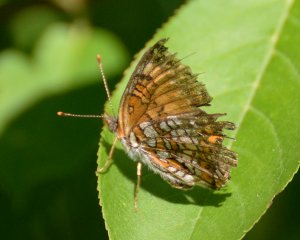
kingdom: Animalia
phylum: Arthropoda
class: Insecta
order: Lepidoptera
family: Nymphalidae
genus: Chlosyne
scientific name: Chlosyne harrisii
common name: Harris's Checkerspot
